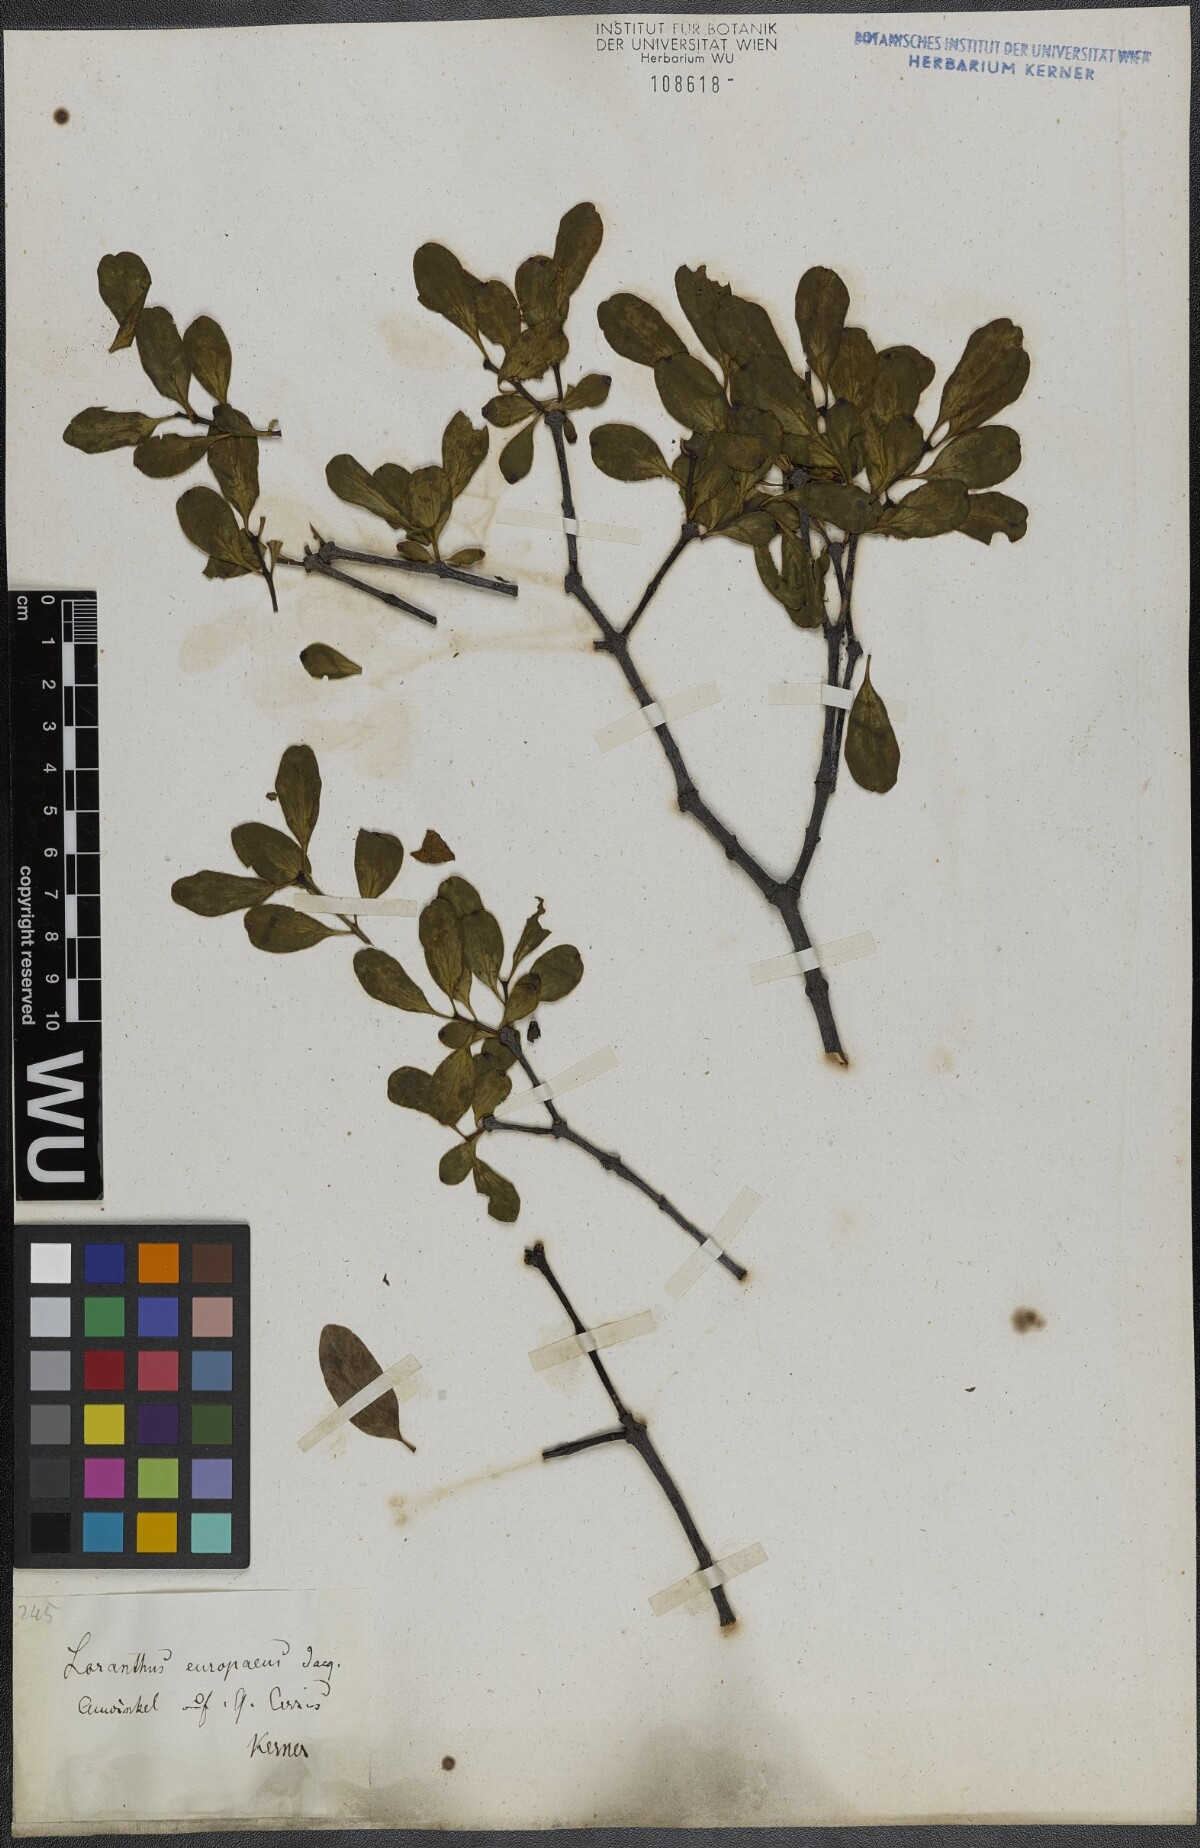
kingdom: Plantae
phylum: Tracheophyta
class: Magnoliopsida
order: Santalales
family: Loranthaceae
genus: Loranthus
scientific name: Loranthus europaeus
